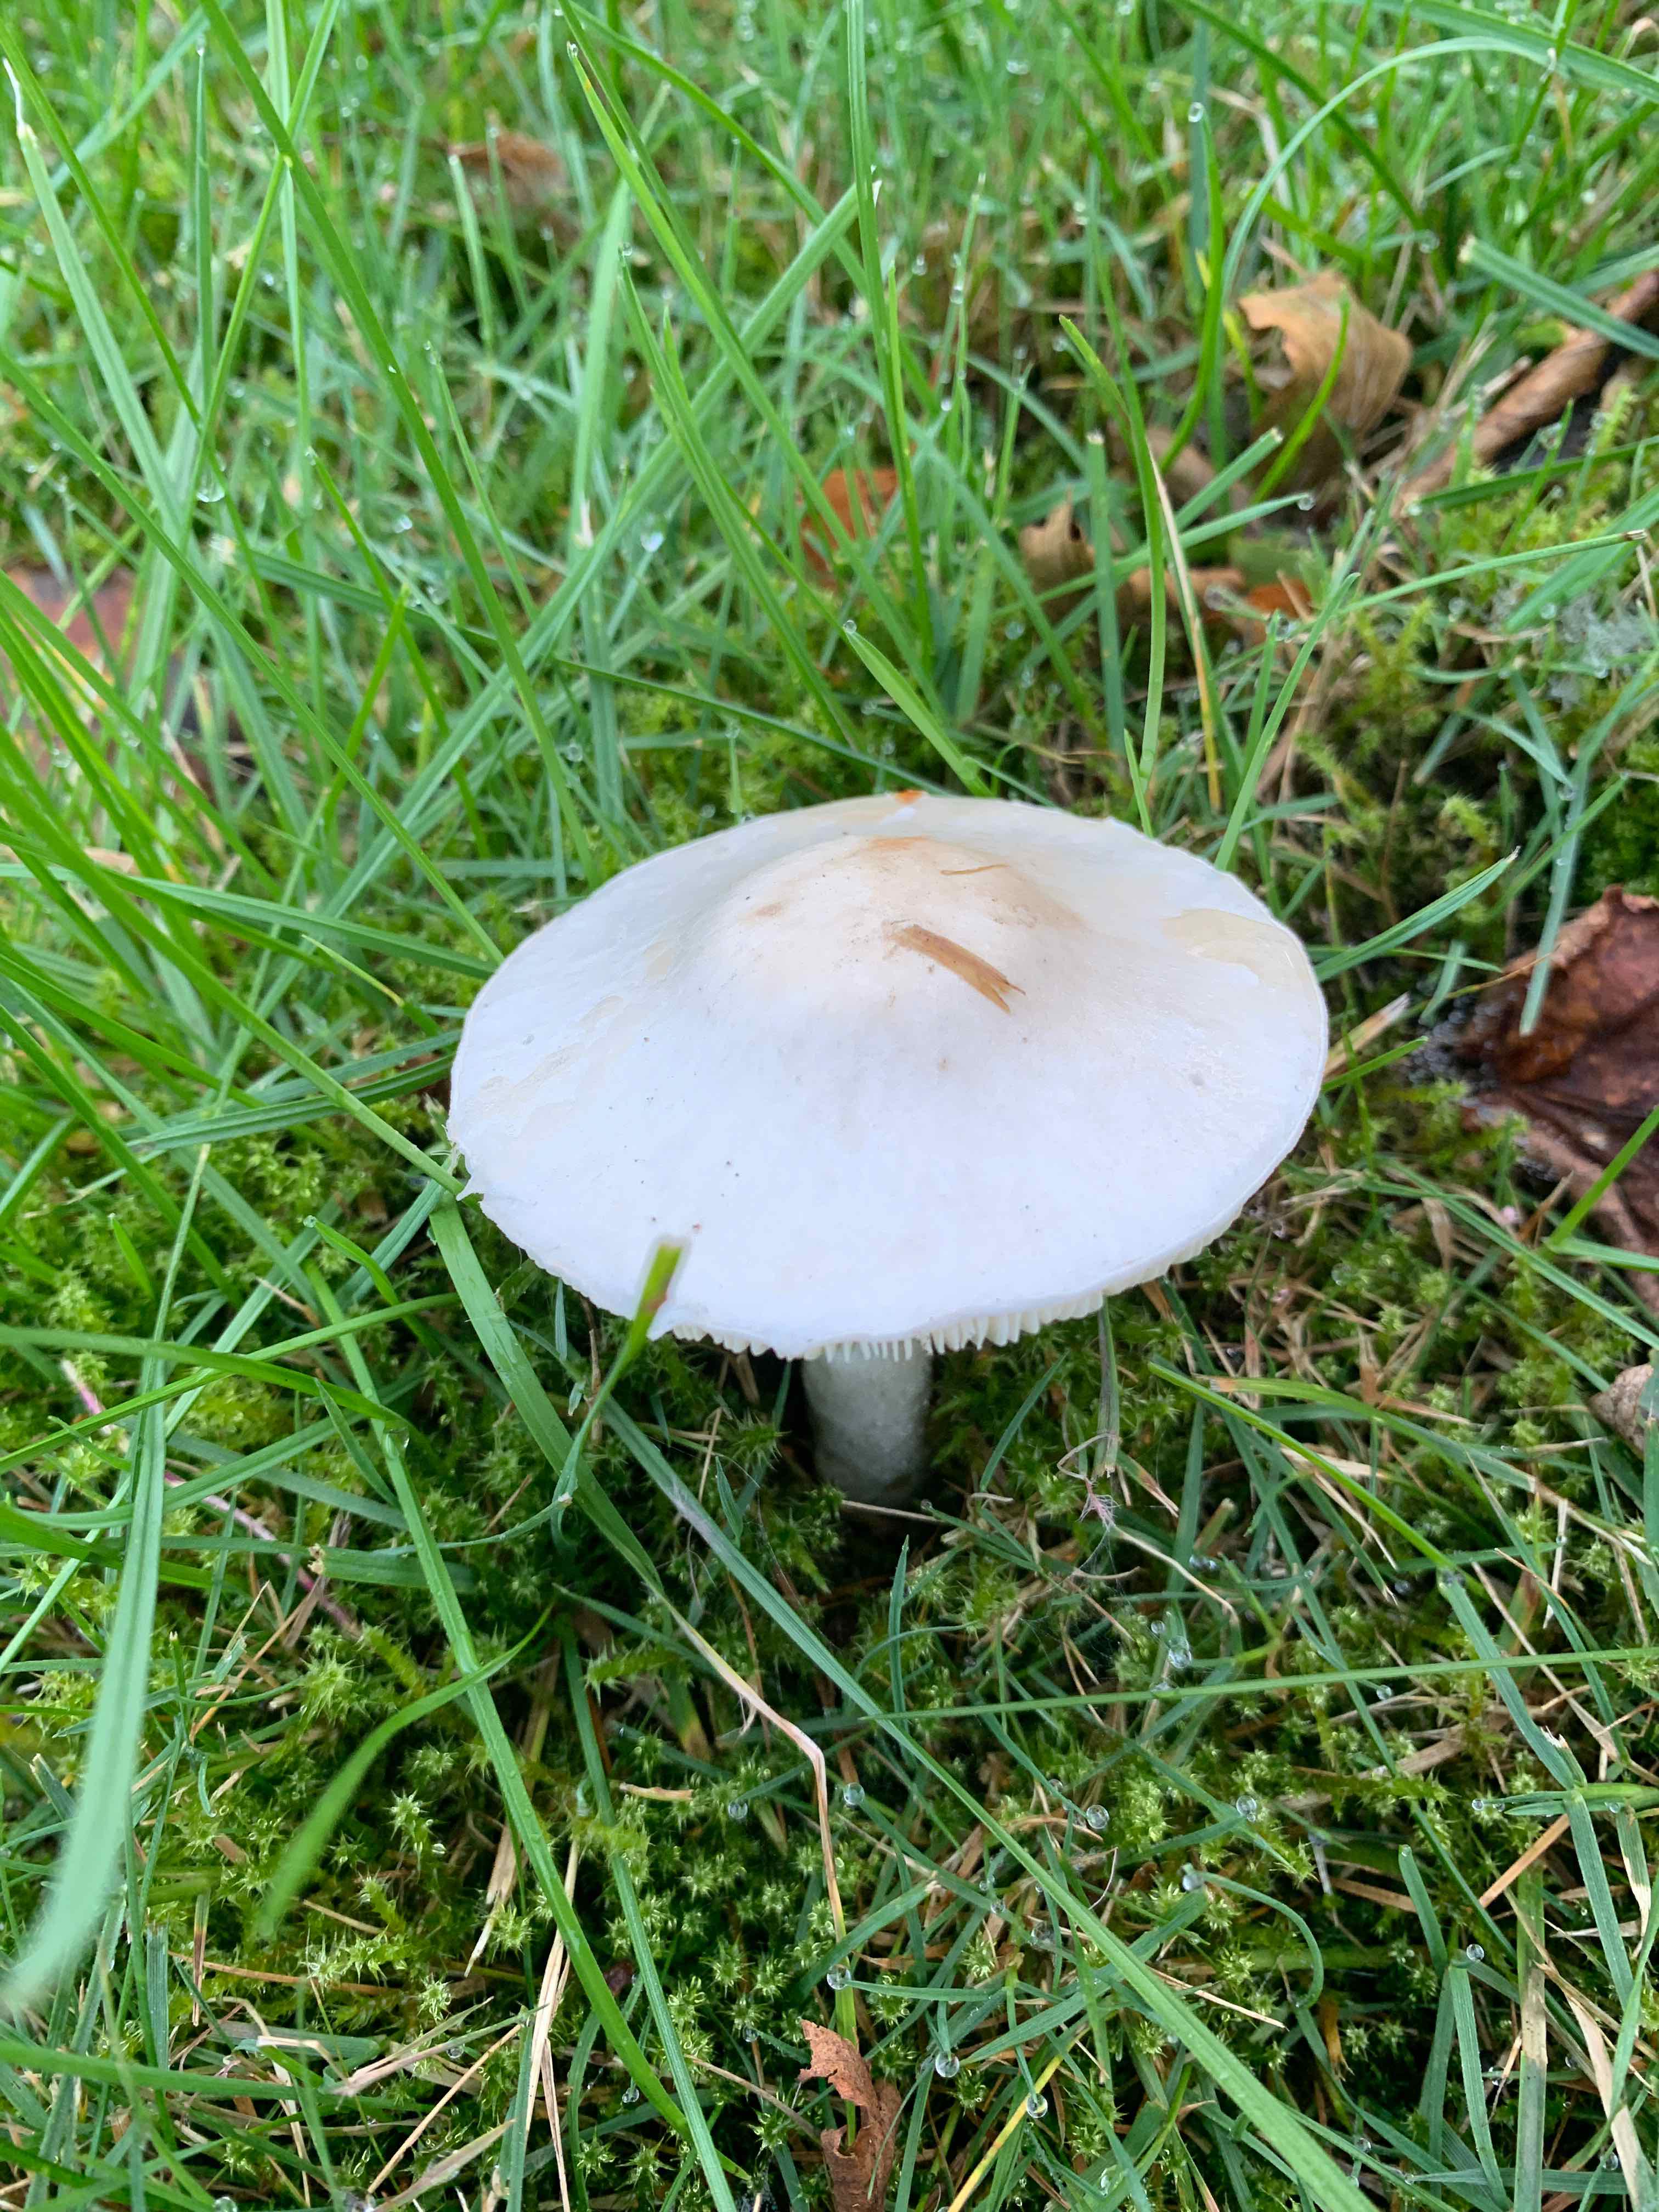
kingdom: Fungi
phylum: Basidiomycota
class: Agaricomycetes
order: Agaricales
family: Agaricaceae
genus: Leucoagaricus
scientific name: Leucoagaricus leucothites
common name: rosabladet silkehat
